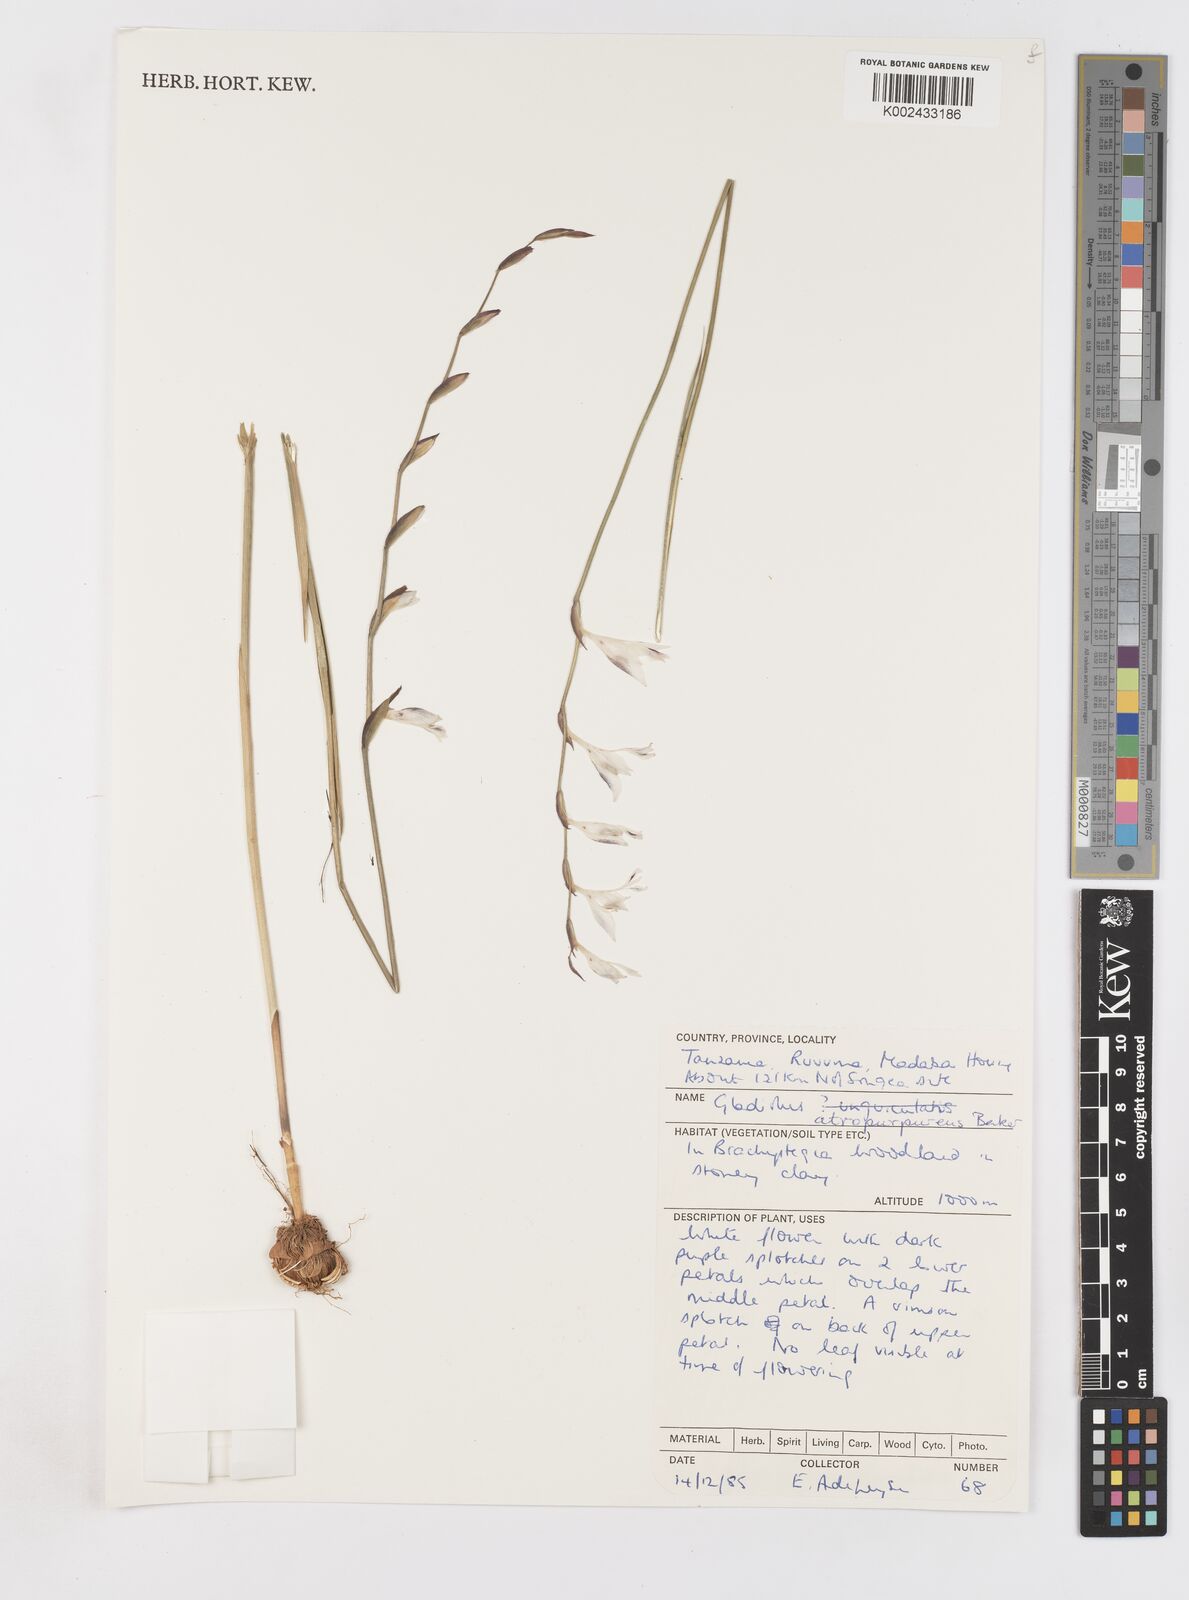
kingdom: Plantae
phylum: Tracheophyta
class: Liliopsida
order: Asparagales
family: Iridaceae
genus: Gladiolus
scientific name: Gladiolus atropurpureus
